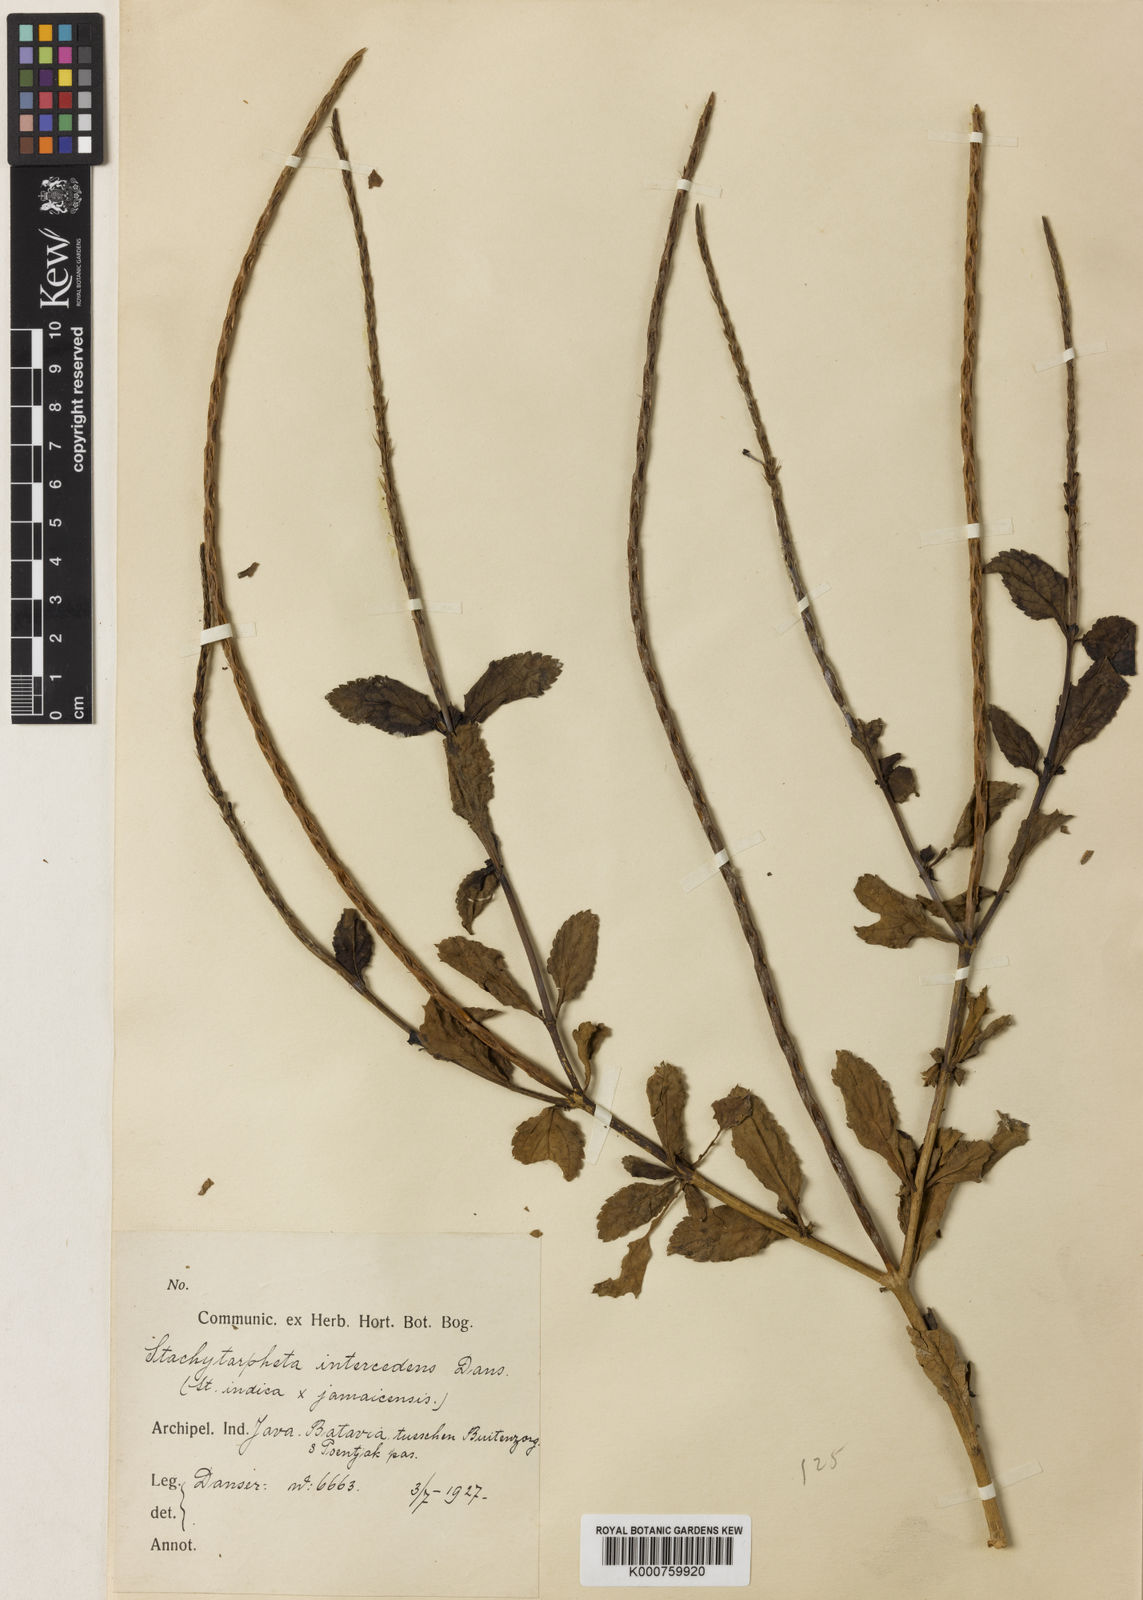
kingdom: Plantae
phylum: Tracheophyta
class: Magnoliopsida
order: Lamiales
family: Verbenaceae
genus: Stachytarpheta
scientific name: Stachytarpheta intercedens
